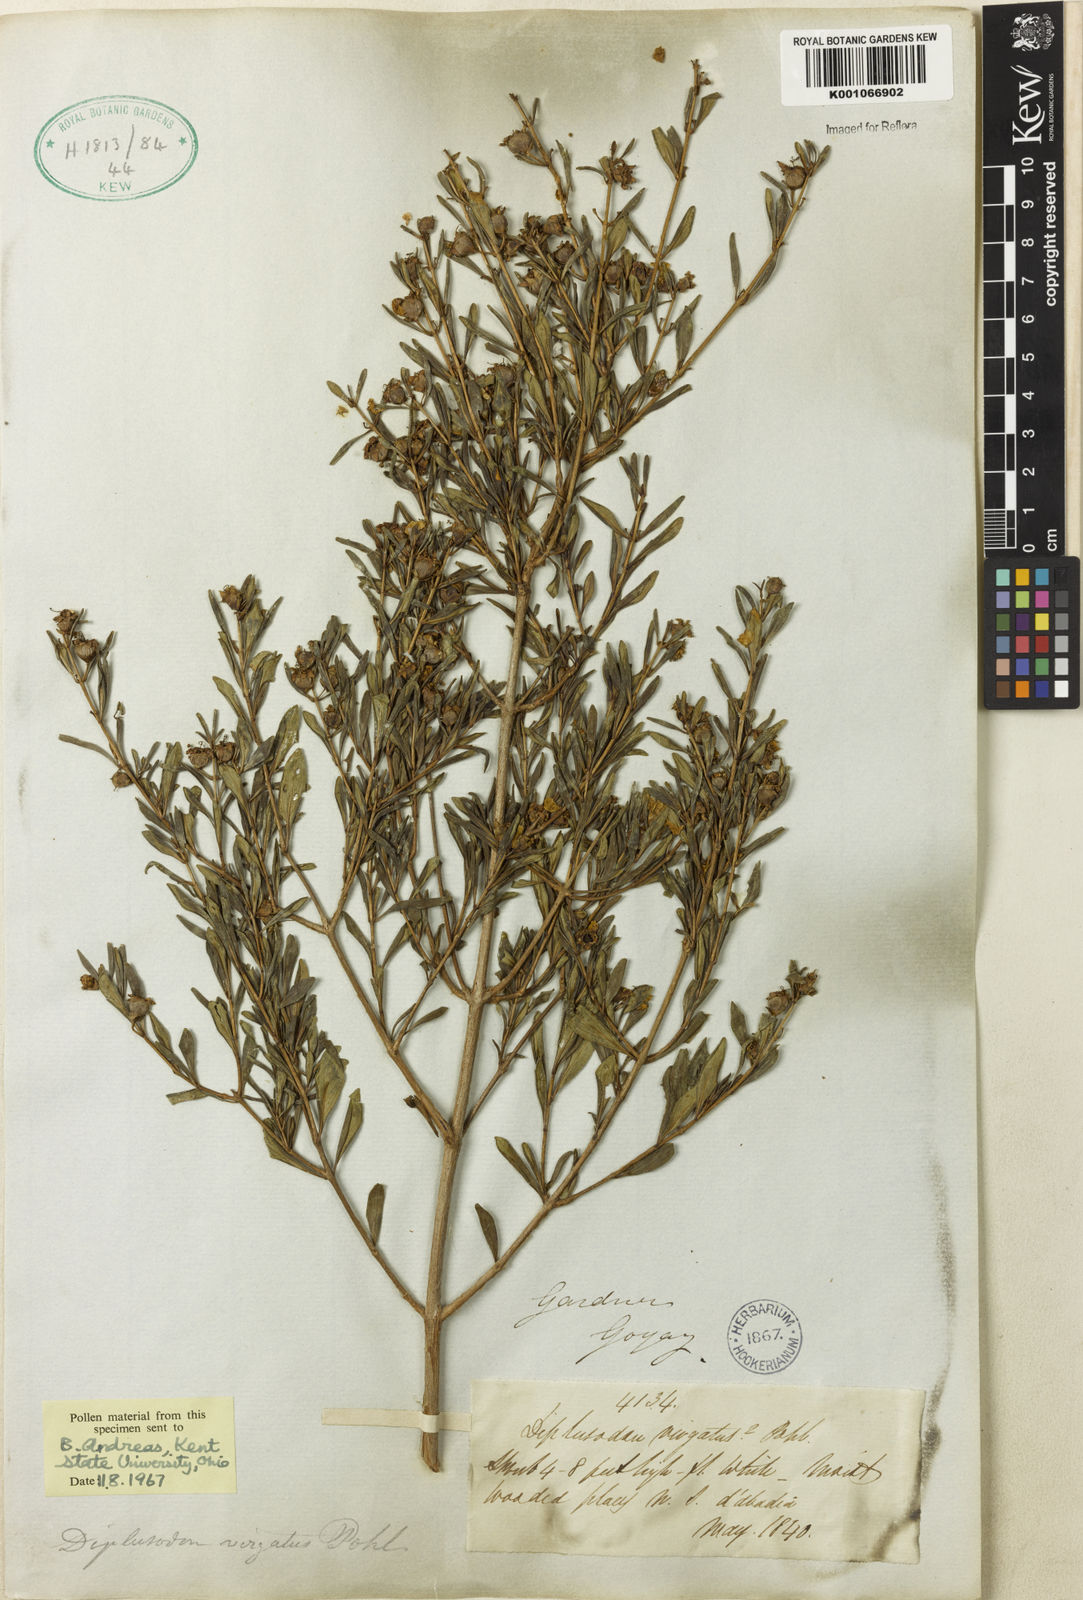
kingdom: Plantae
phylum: Tracheophyta
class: Magnoliopsida
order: Myrtales
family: Lythraceae
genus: Diplusodon
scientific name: Diplusodon virgatus
